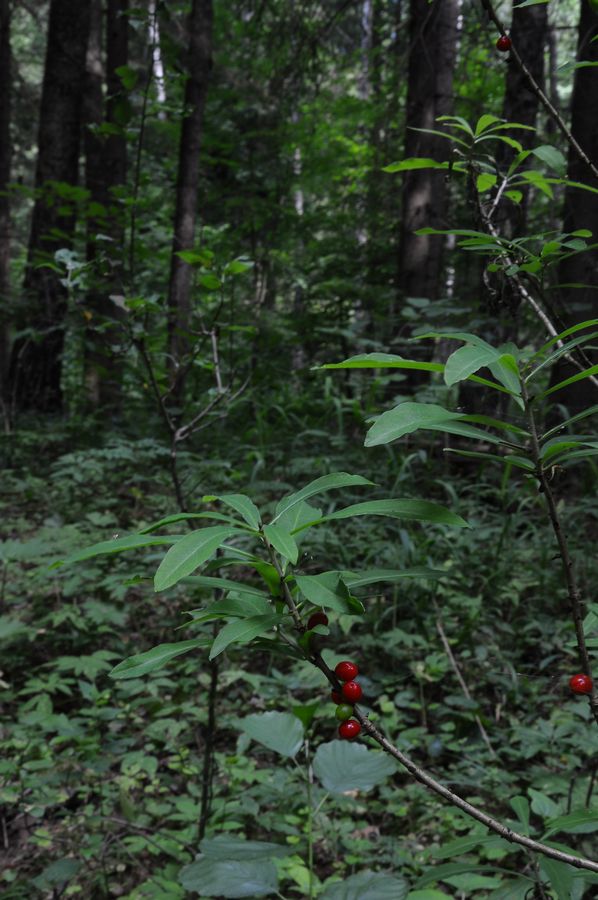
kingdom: Plantae
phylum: Tracheophyta
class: Magnoliopsida
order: Malvales
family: Thymelaeaceae
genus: Daphne
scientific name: Daphne mezereum
